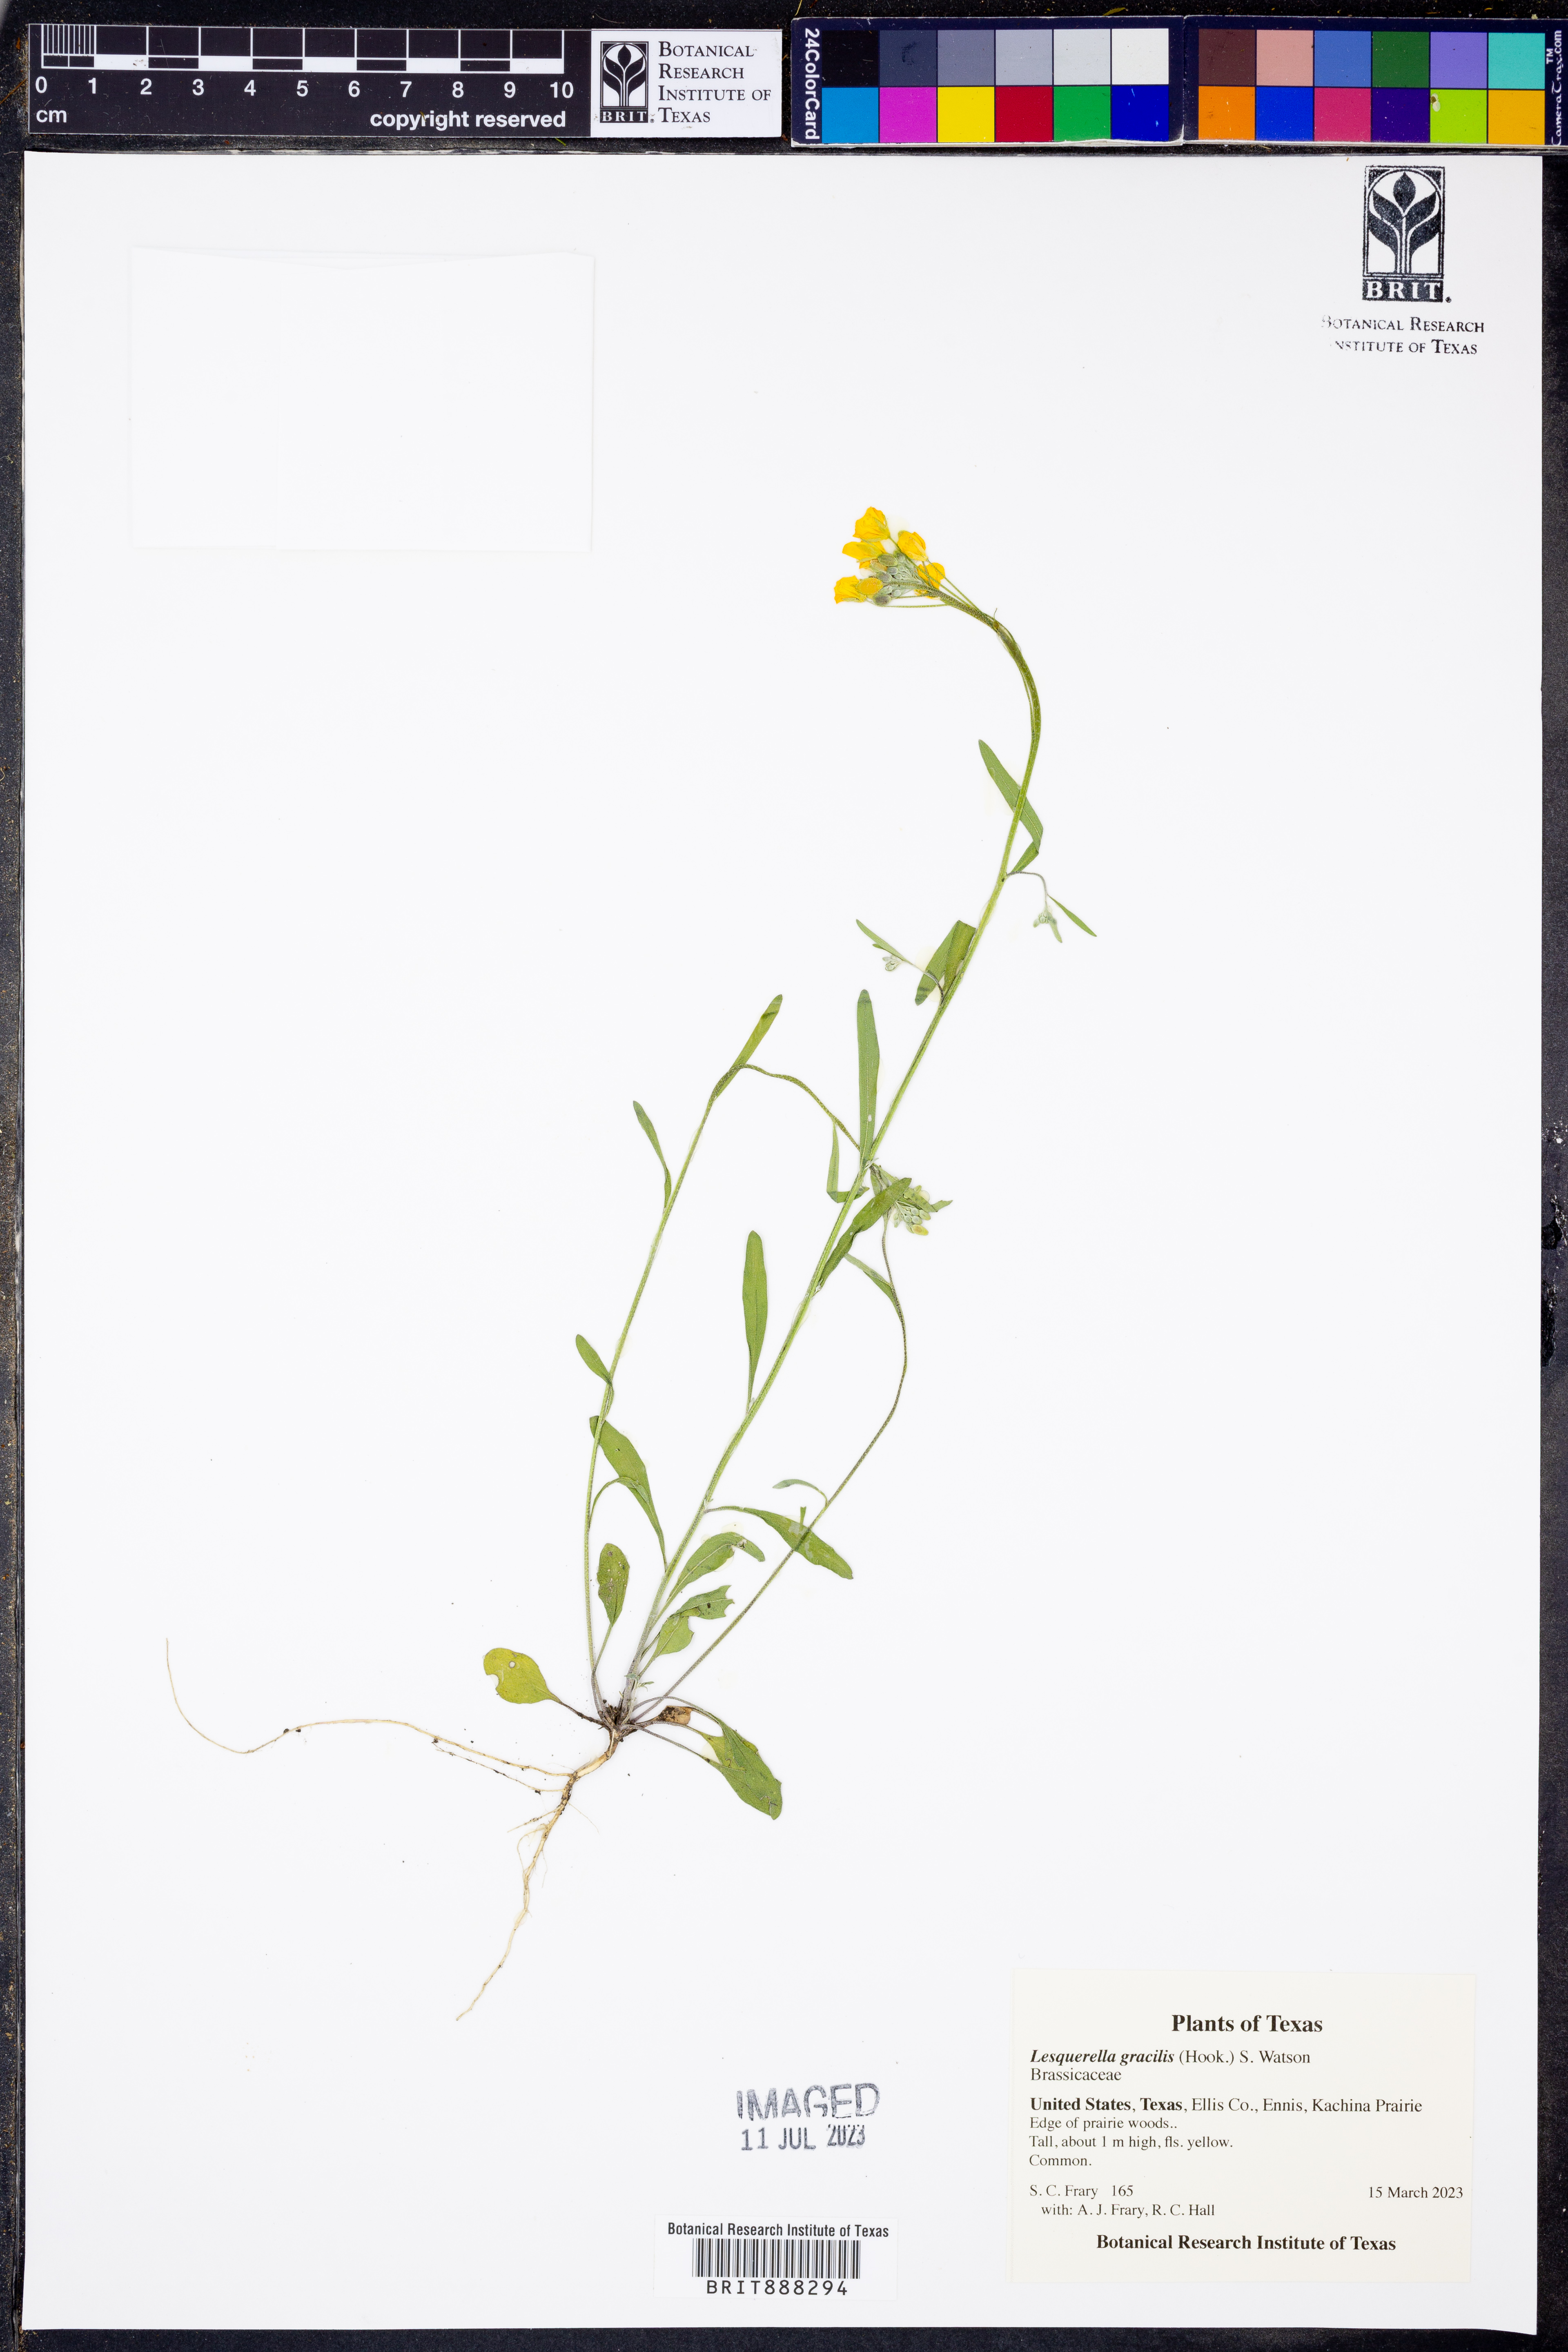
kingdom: Plantae
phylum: Tracheophyta
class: Magnoliopsida
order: Brassicales
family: Brassicaceae
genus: Physaria
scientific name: Physaria gracilis
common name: Spreading bladderpod
